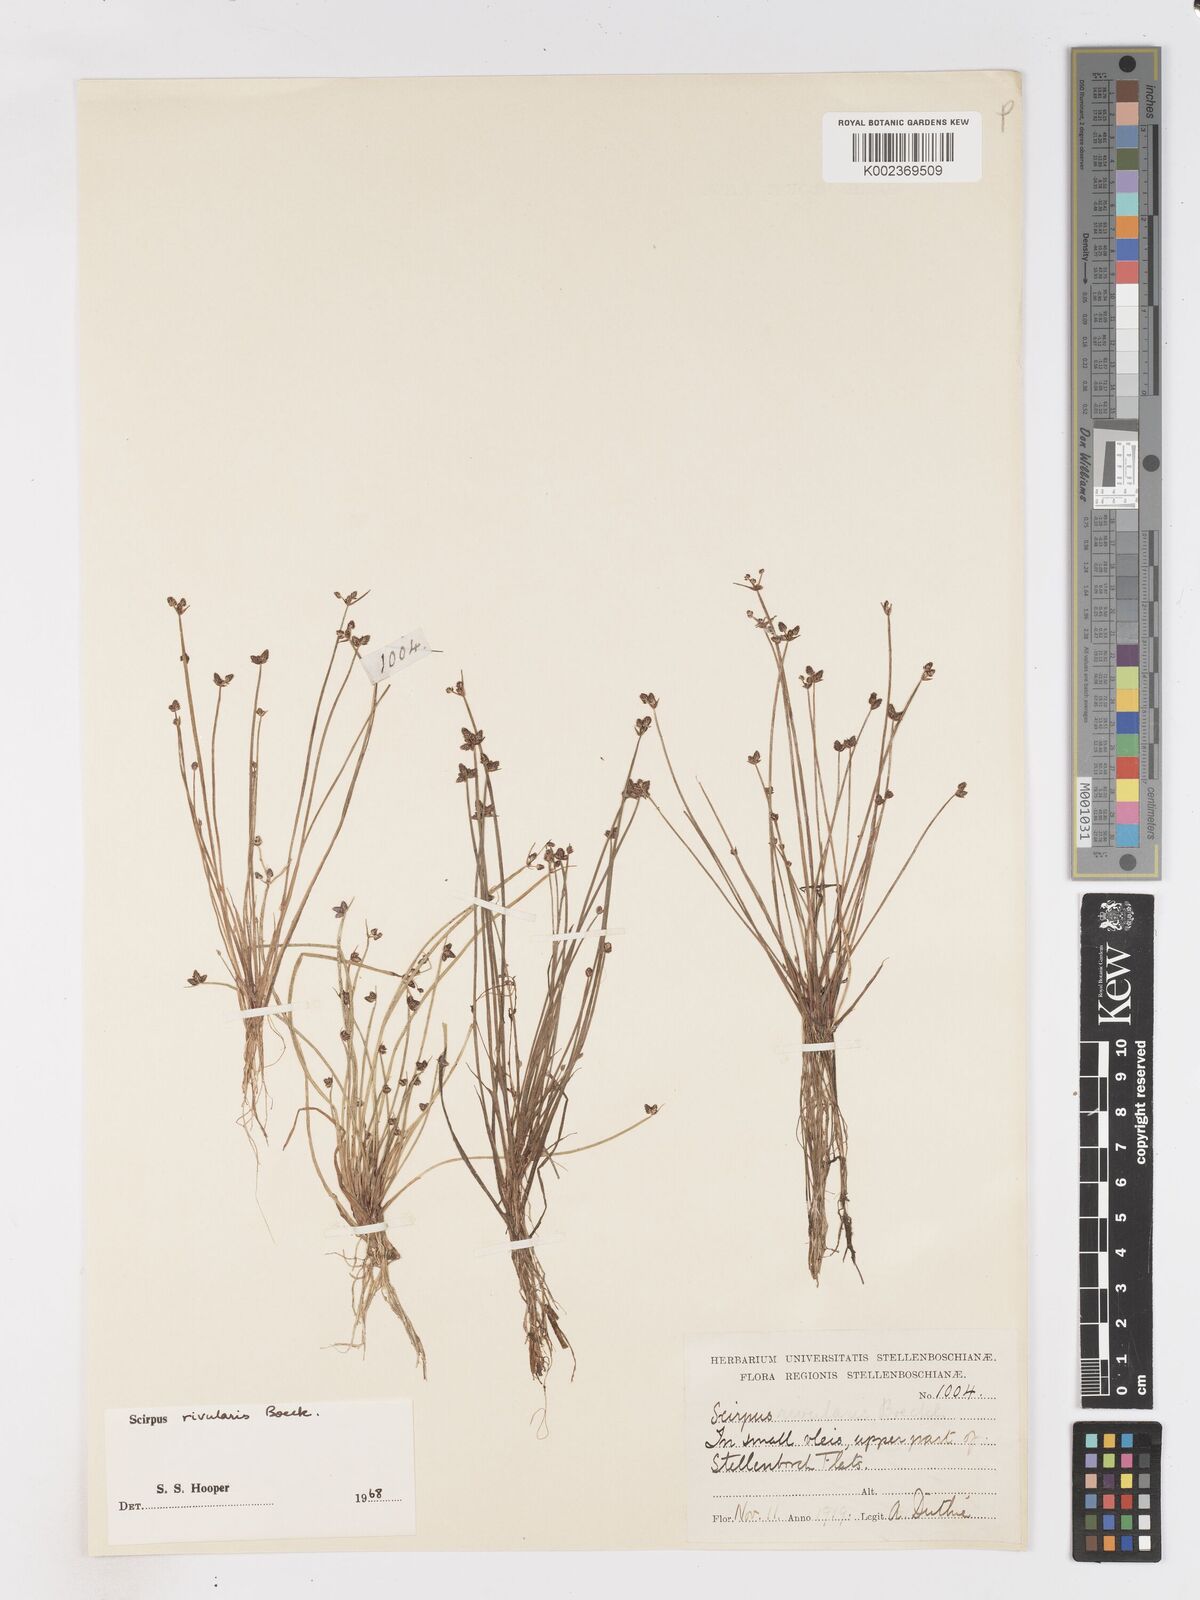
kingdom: Plantae
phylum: Tracheophyta
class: Liliopsida
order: Poales
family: Cyperaceae
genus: Isolepis
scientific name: Isolepis natans
